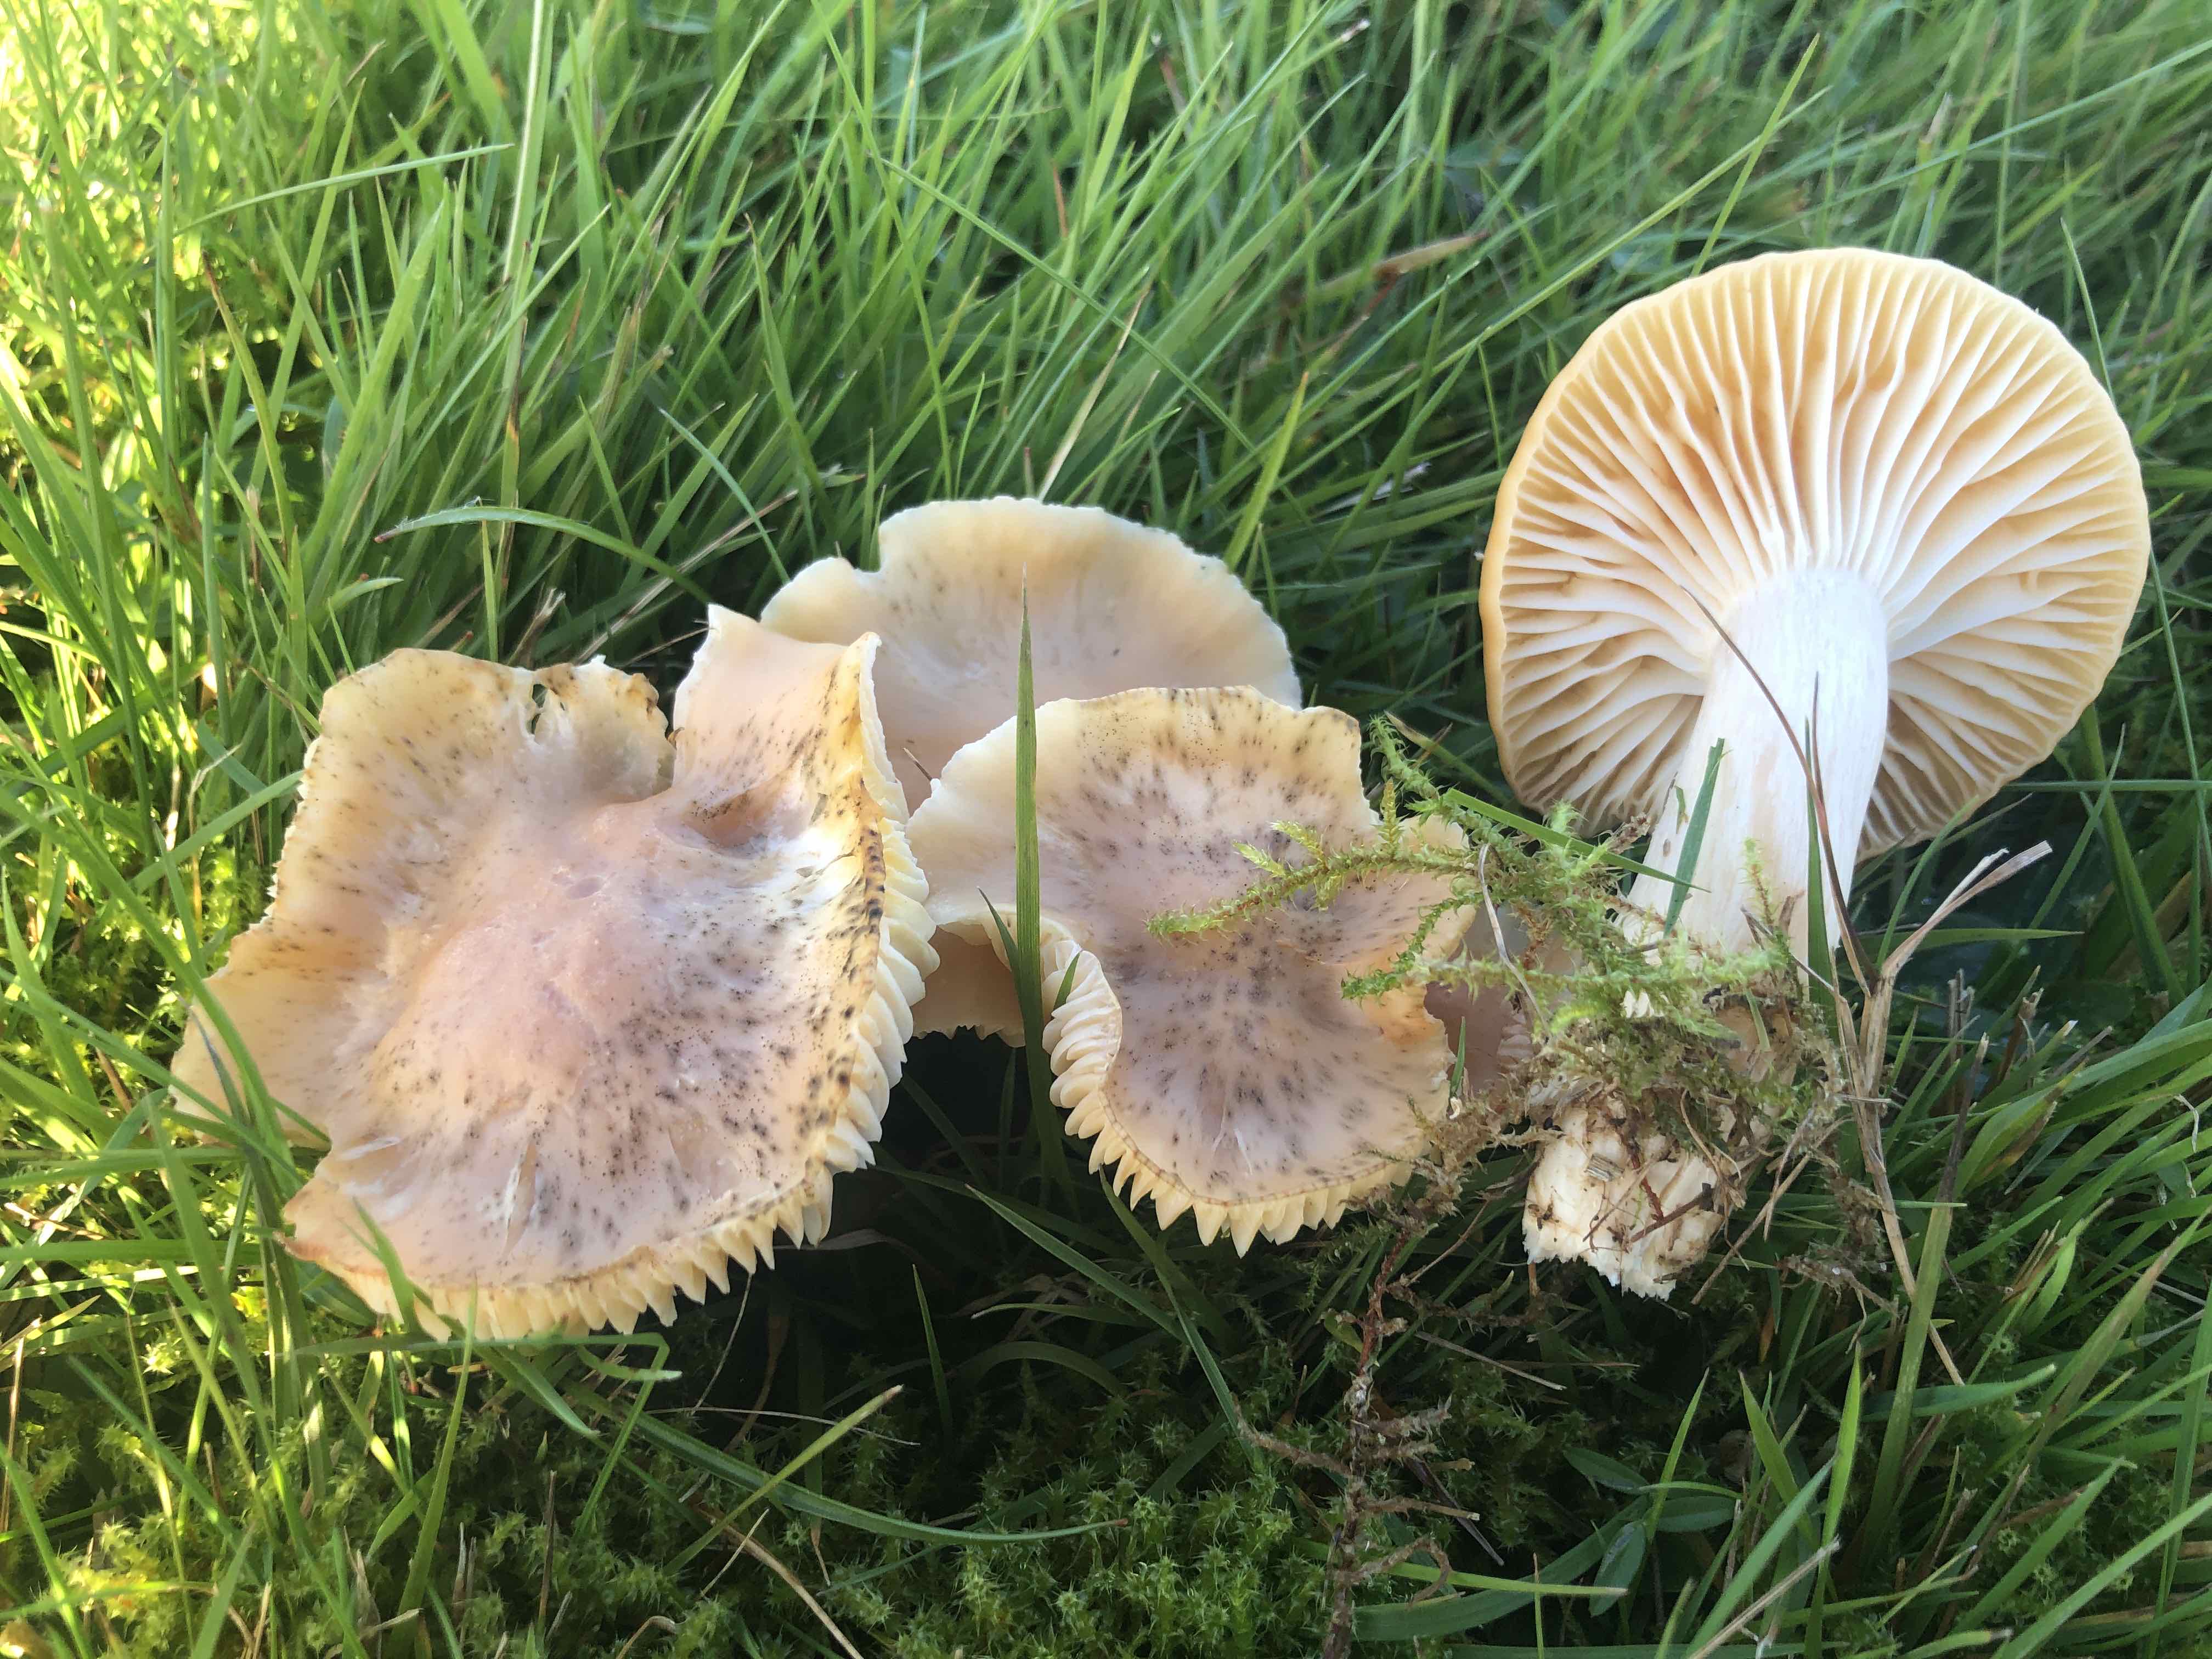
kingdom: Fungi
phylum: Basidiomycota
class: Agaricomycetes
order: Agaricales
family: Hygrophoraceae
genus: Cuphophyllus
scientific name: Cuphophyllus pratensis
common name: eng-vokshat
